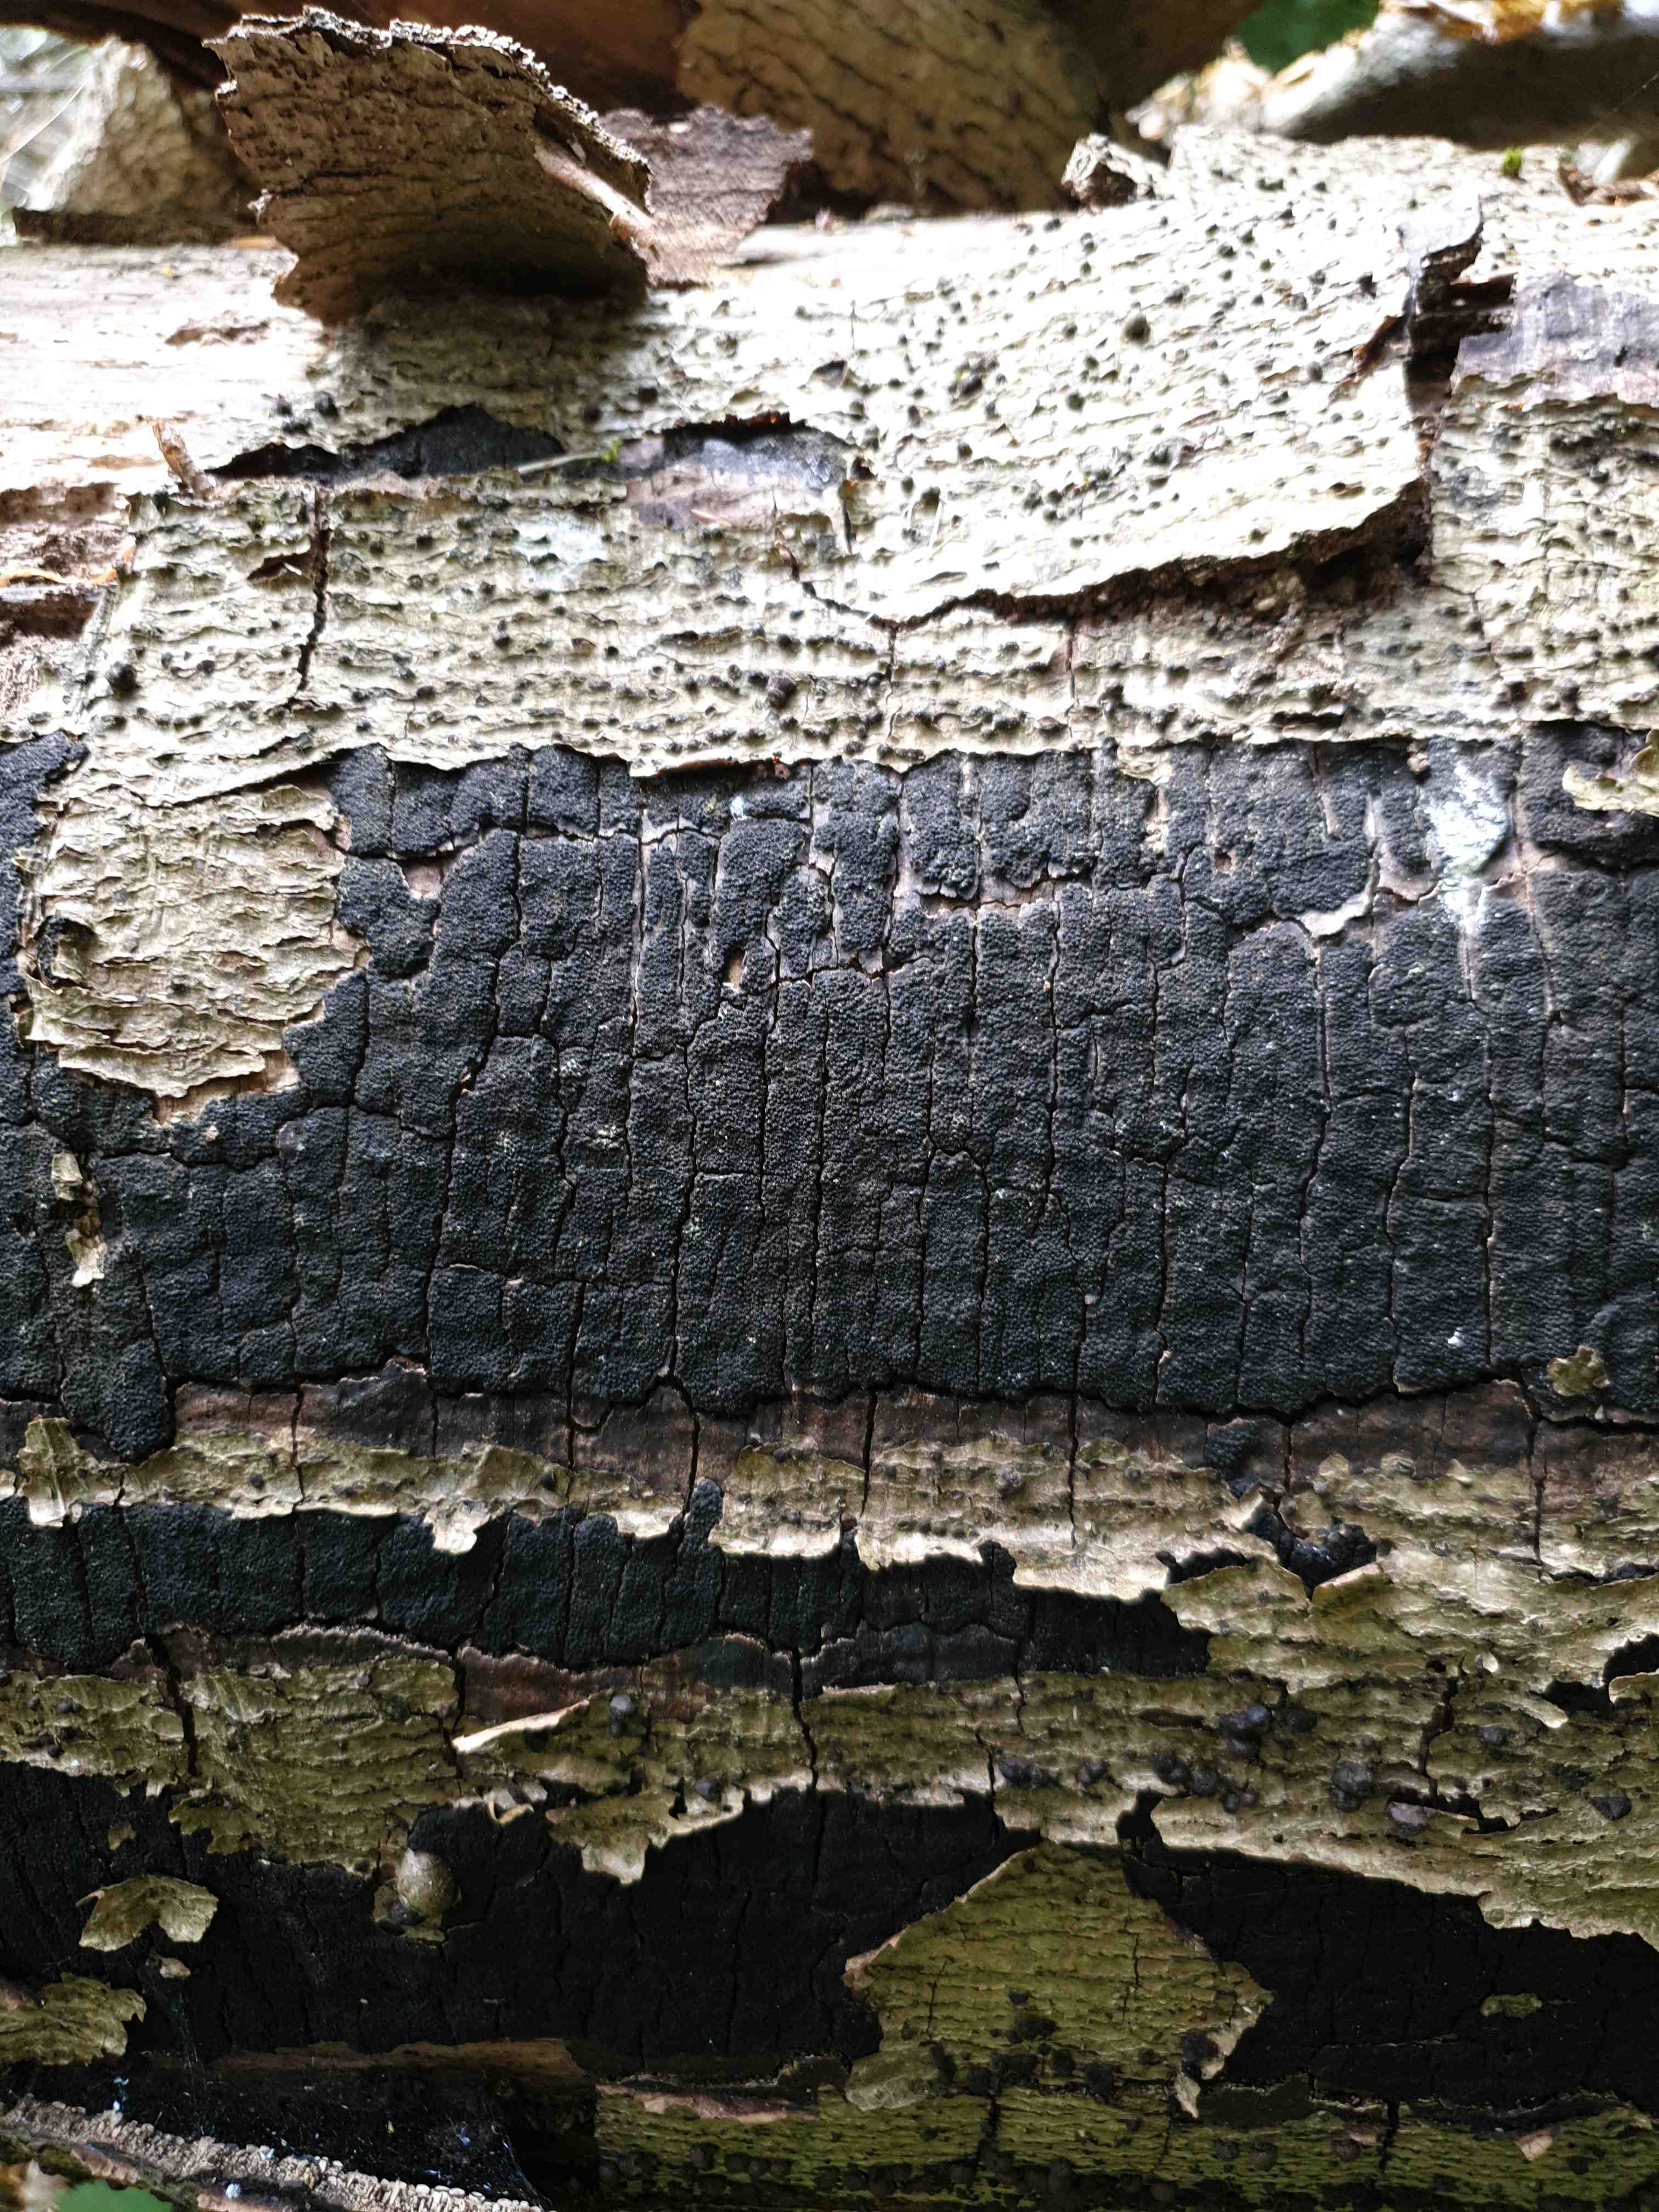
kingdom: Fungi
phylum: Ascomycota
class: Sordariomycetes
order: Xylariales
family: Diatrypaceae
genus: Eutypa
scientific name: Eutypa spinosa
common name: grov kulskorpe
